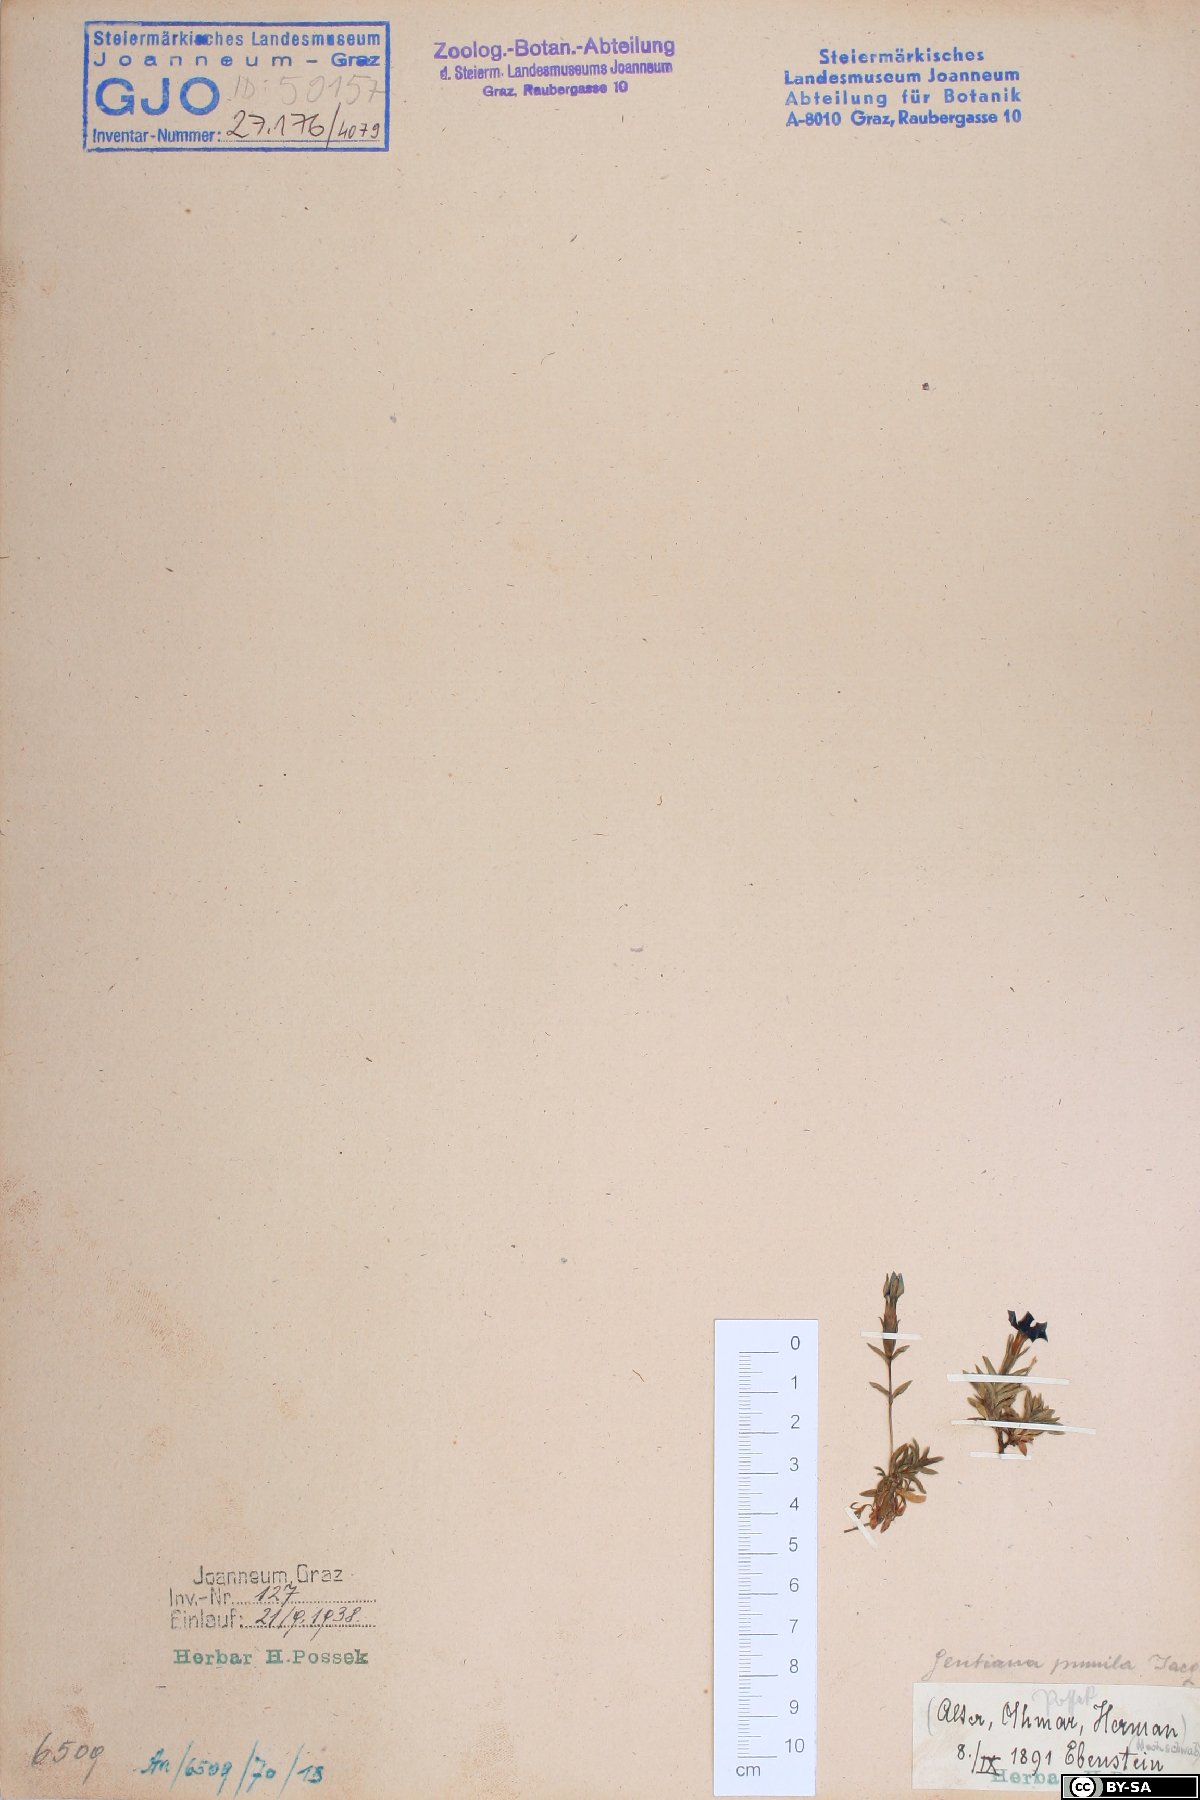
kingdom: Plantae
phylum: Tracheophyta
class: Magnoliopsida
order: Gentianales
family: Gentianaceae
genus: Gentiana
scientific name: Gentiana pumila
